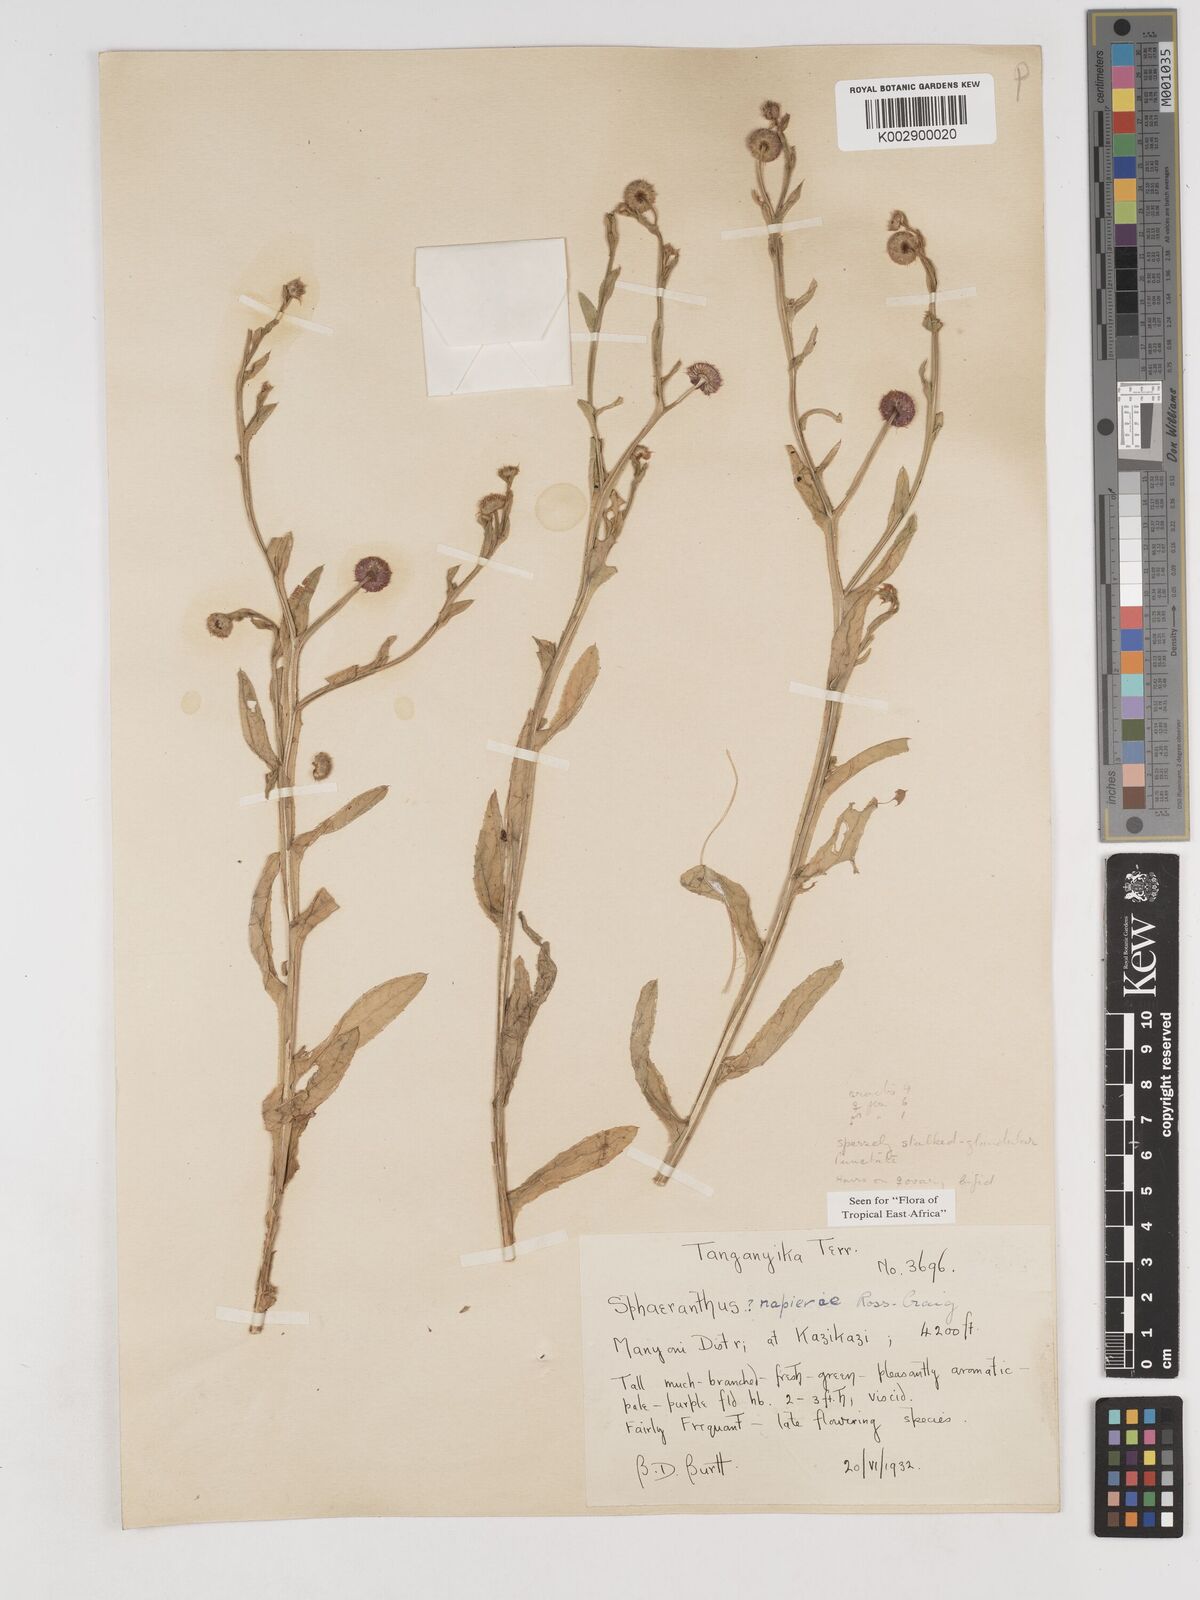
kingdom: Plantae
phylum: Tracheophyta
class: Magnoliopsida
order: Asterales
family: Asteraceae
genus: Sphaeranthus
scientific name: Sphaeranthus suaveolens
